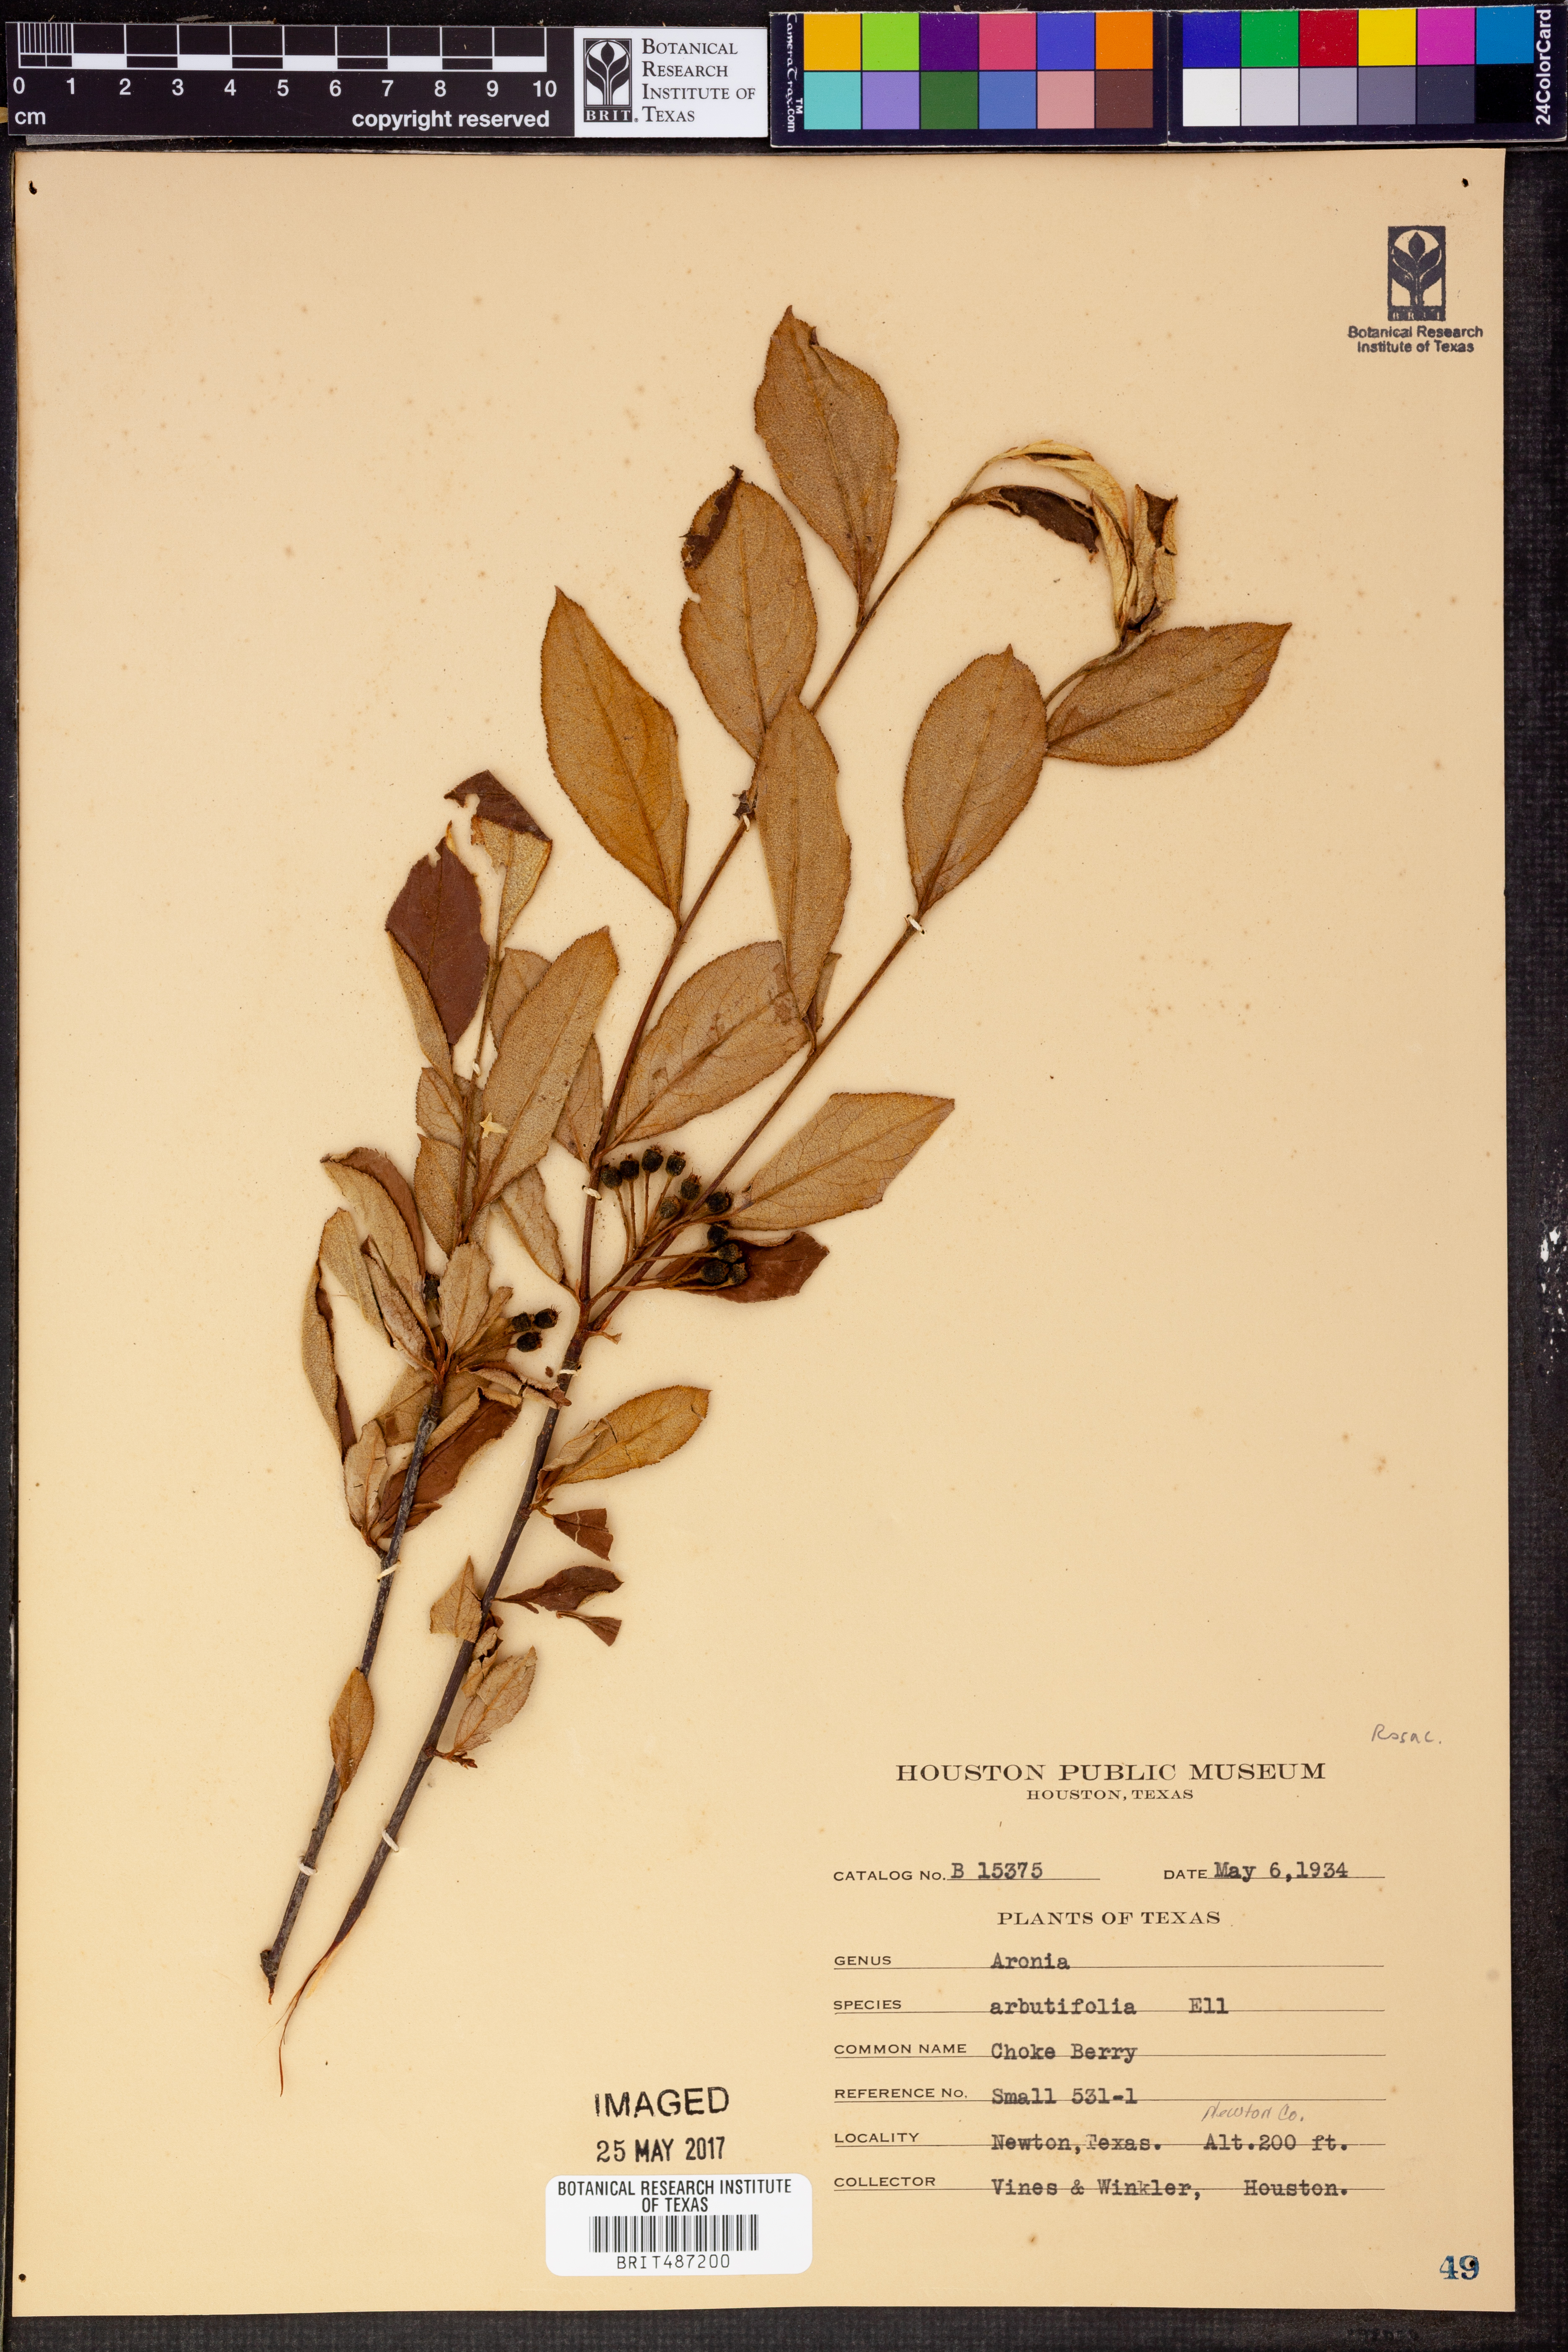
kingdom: Plantae
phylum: Tracheophyta
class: Magnoliopsida
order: Rosales
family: Rosaceae
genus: Aronia
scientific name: Aronia arbutifolia
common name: Red chokeberry
